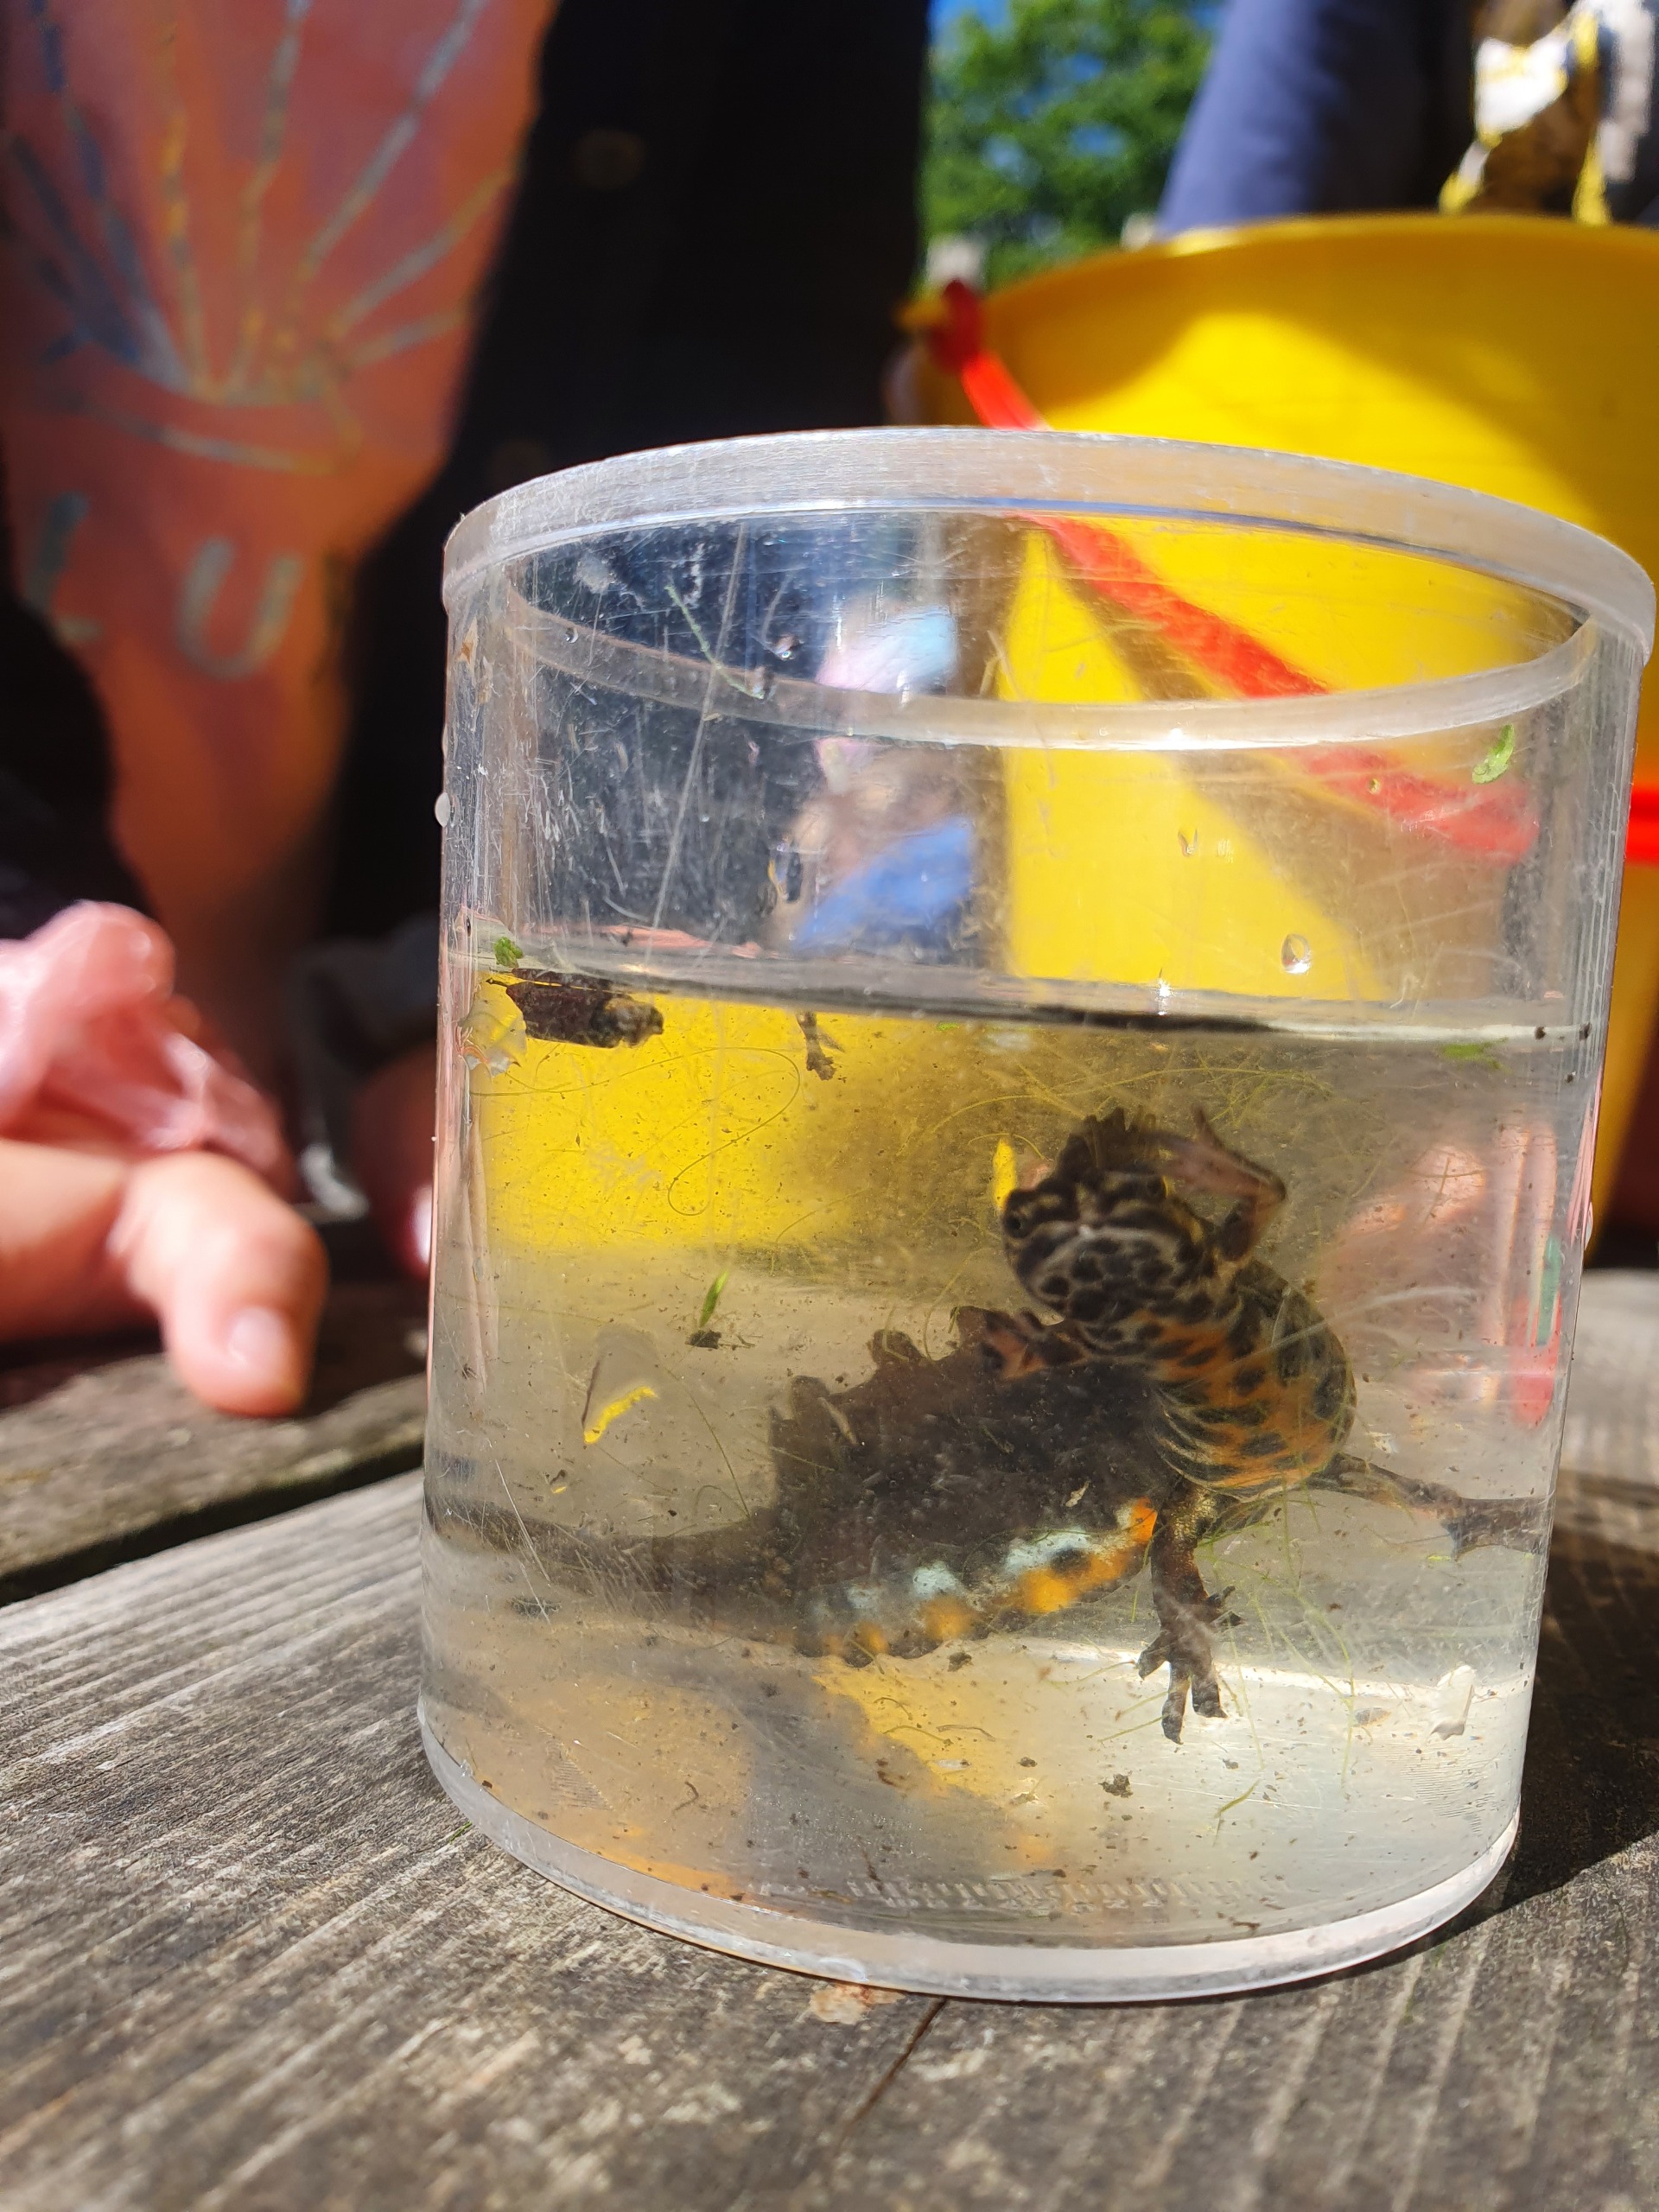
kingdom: Animalia
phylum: Chordata
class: Amphibia
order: Caudata
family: Salamandridae
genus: Lissotriton
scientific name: Lissotriton vulgaris
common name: Lille vandsalamander
